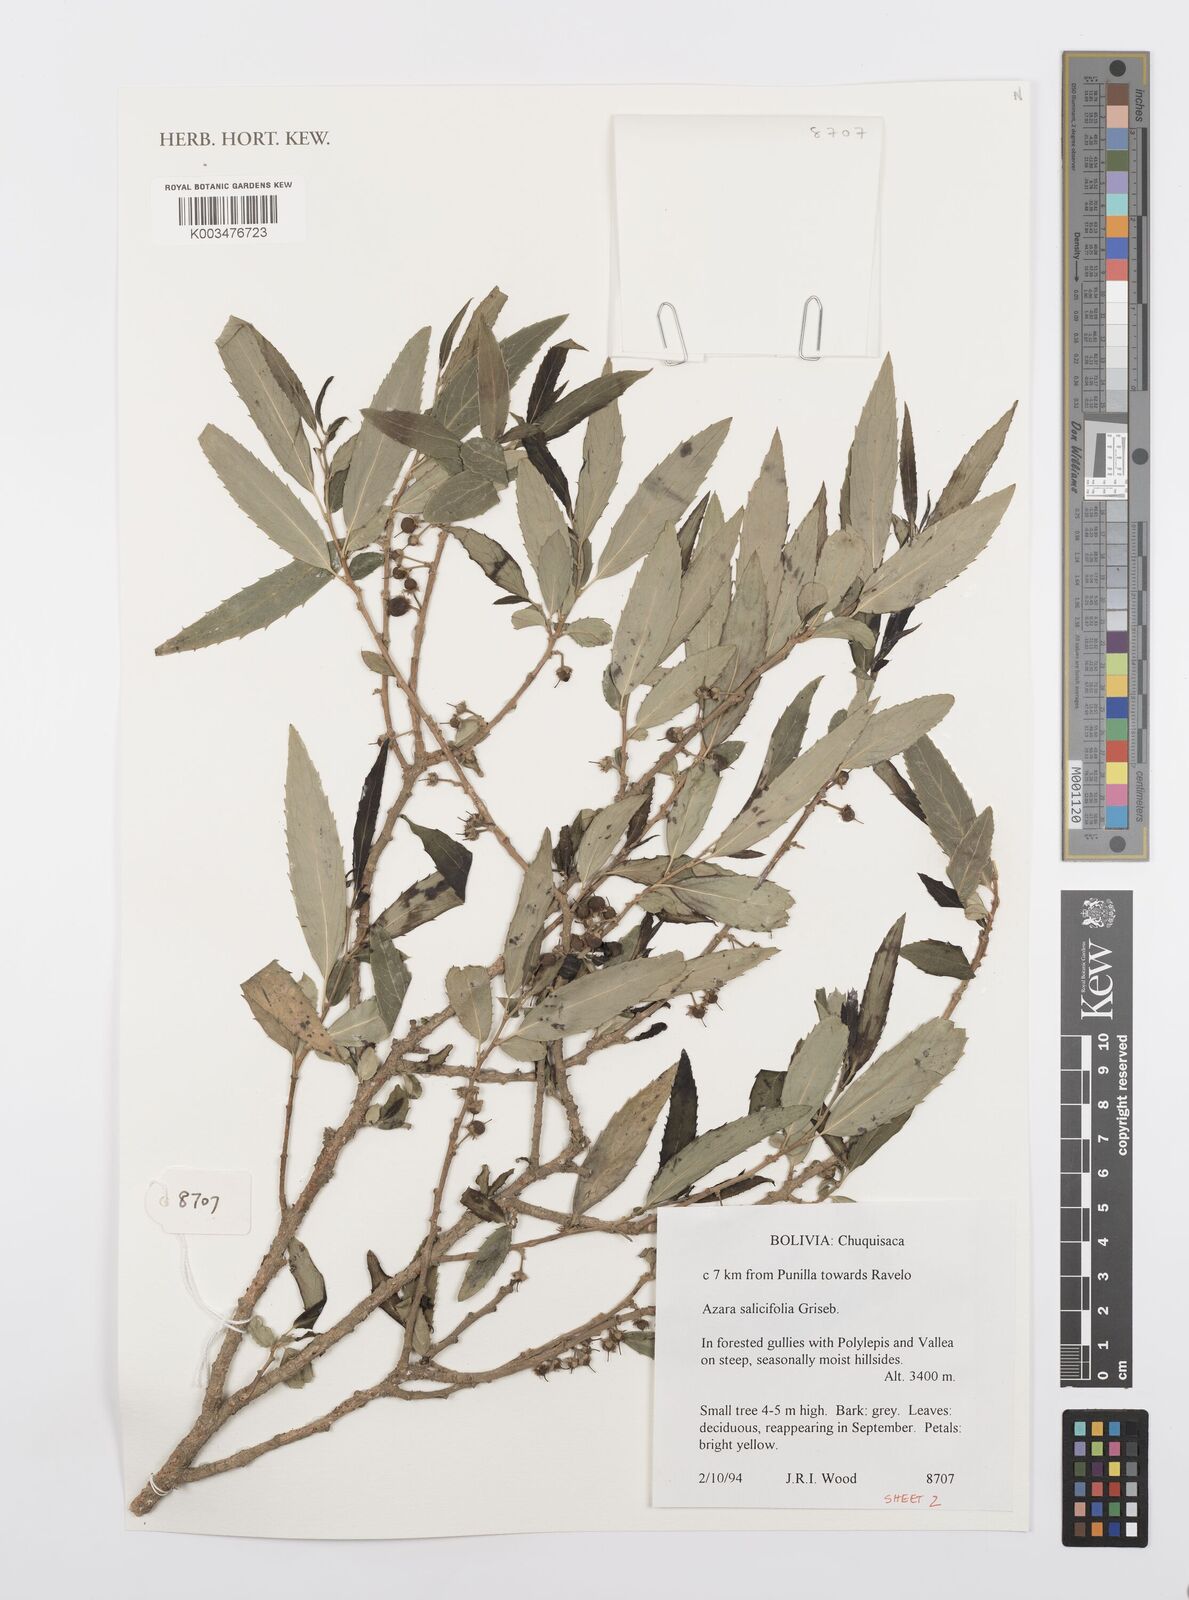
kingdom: Plantae
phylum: Tracheophyta
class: Magnoliopsida
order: Malpighiales
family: Salicaceae
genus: Azara
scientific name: Azara salicifolia
